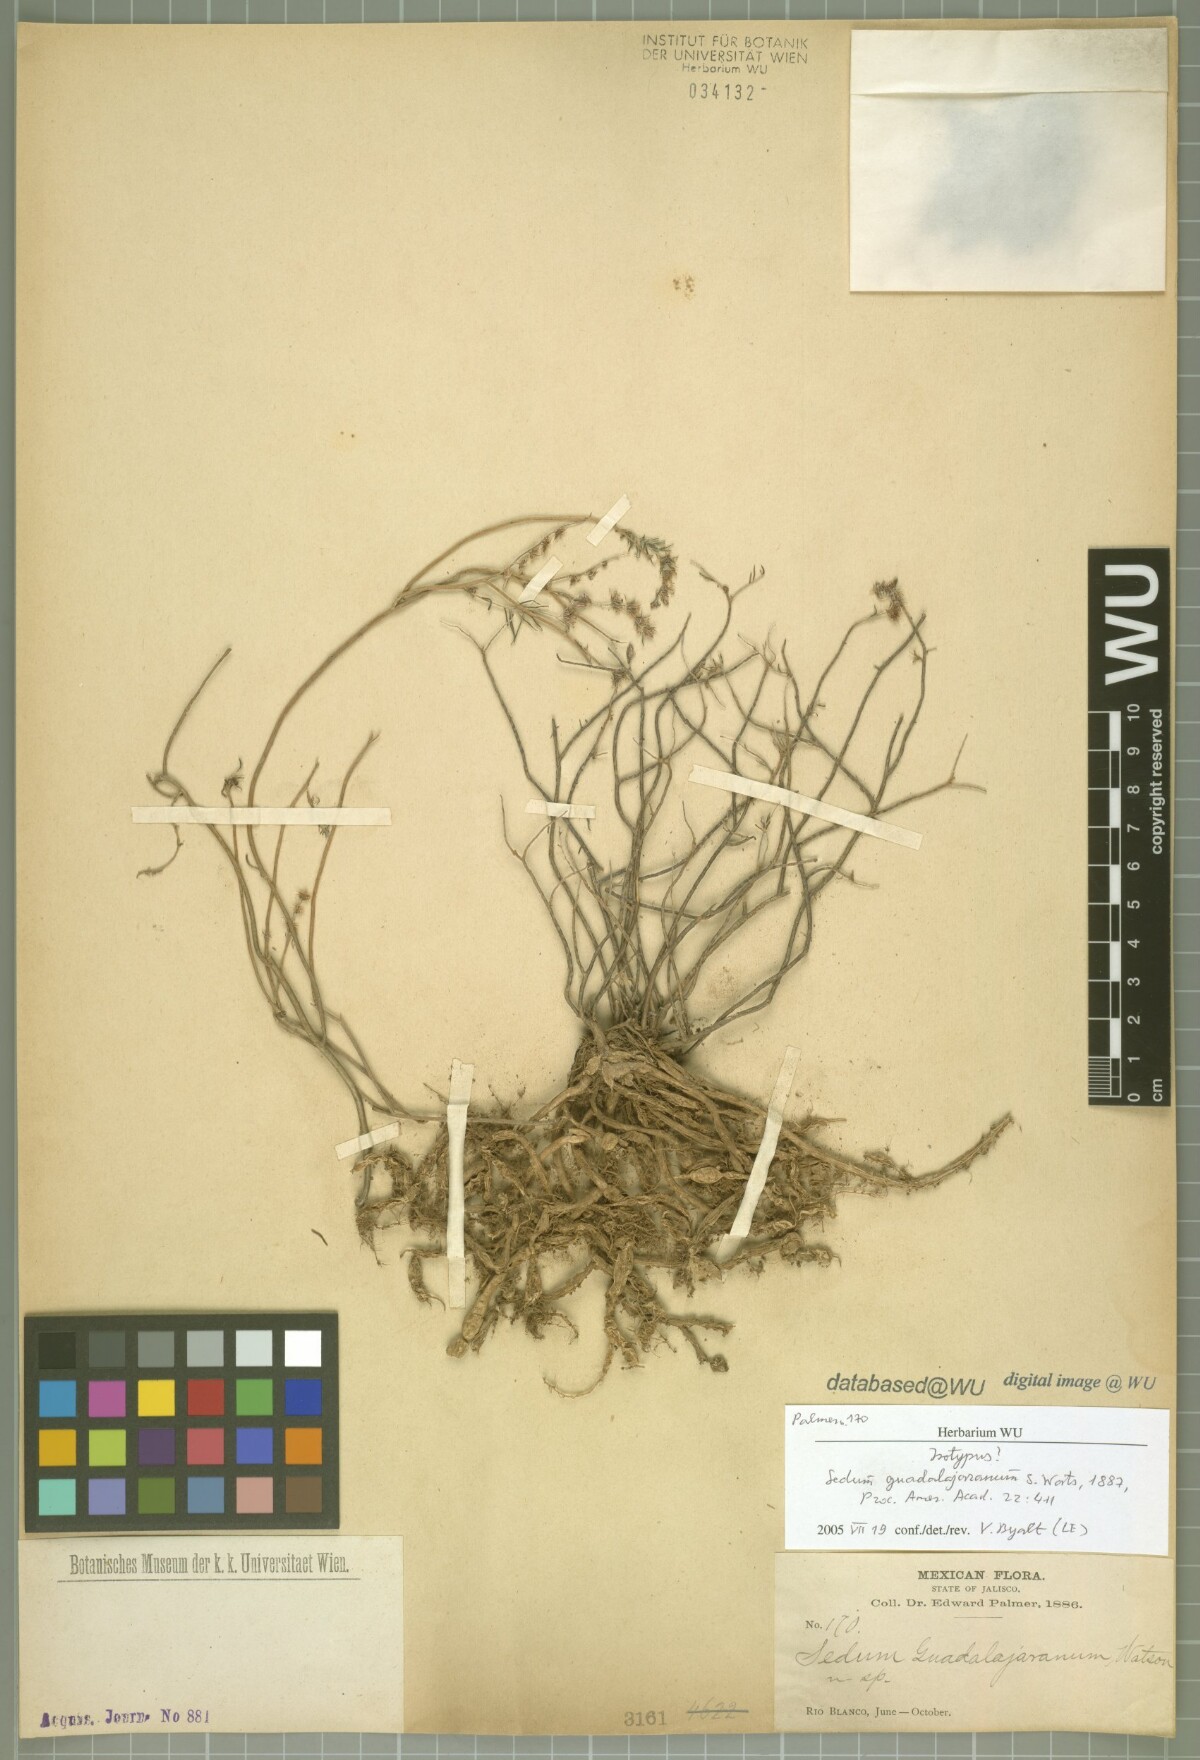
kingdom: Plantae
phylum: Tracheophyta
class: Magnoliopsida
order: Saxifragales
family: Crassulaceae
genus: Sedum
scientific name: Sedum guadalajaranum
